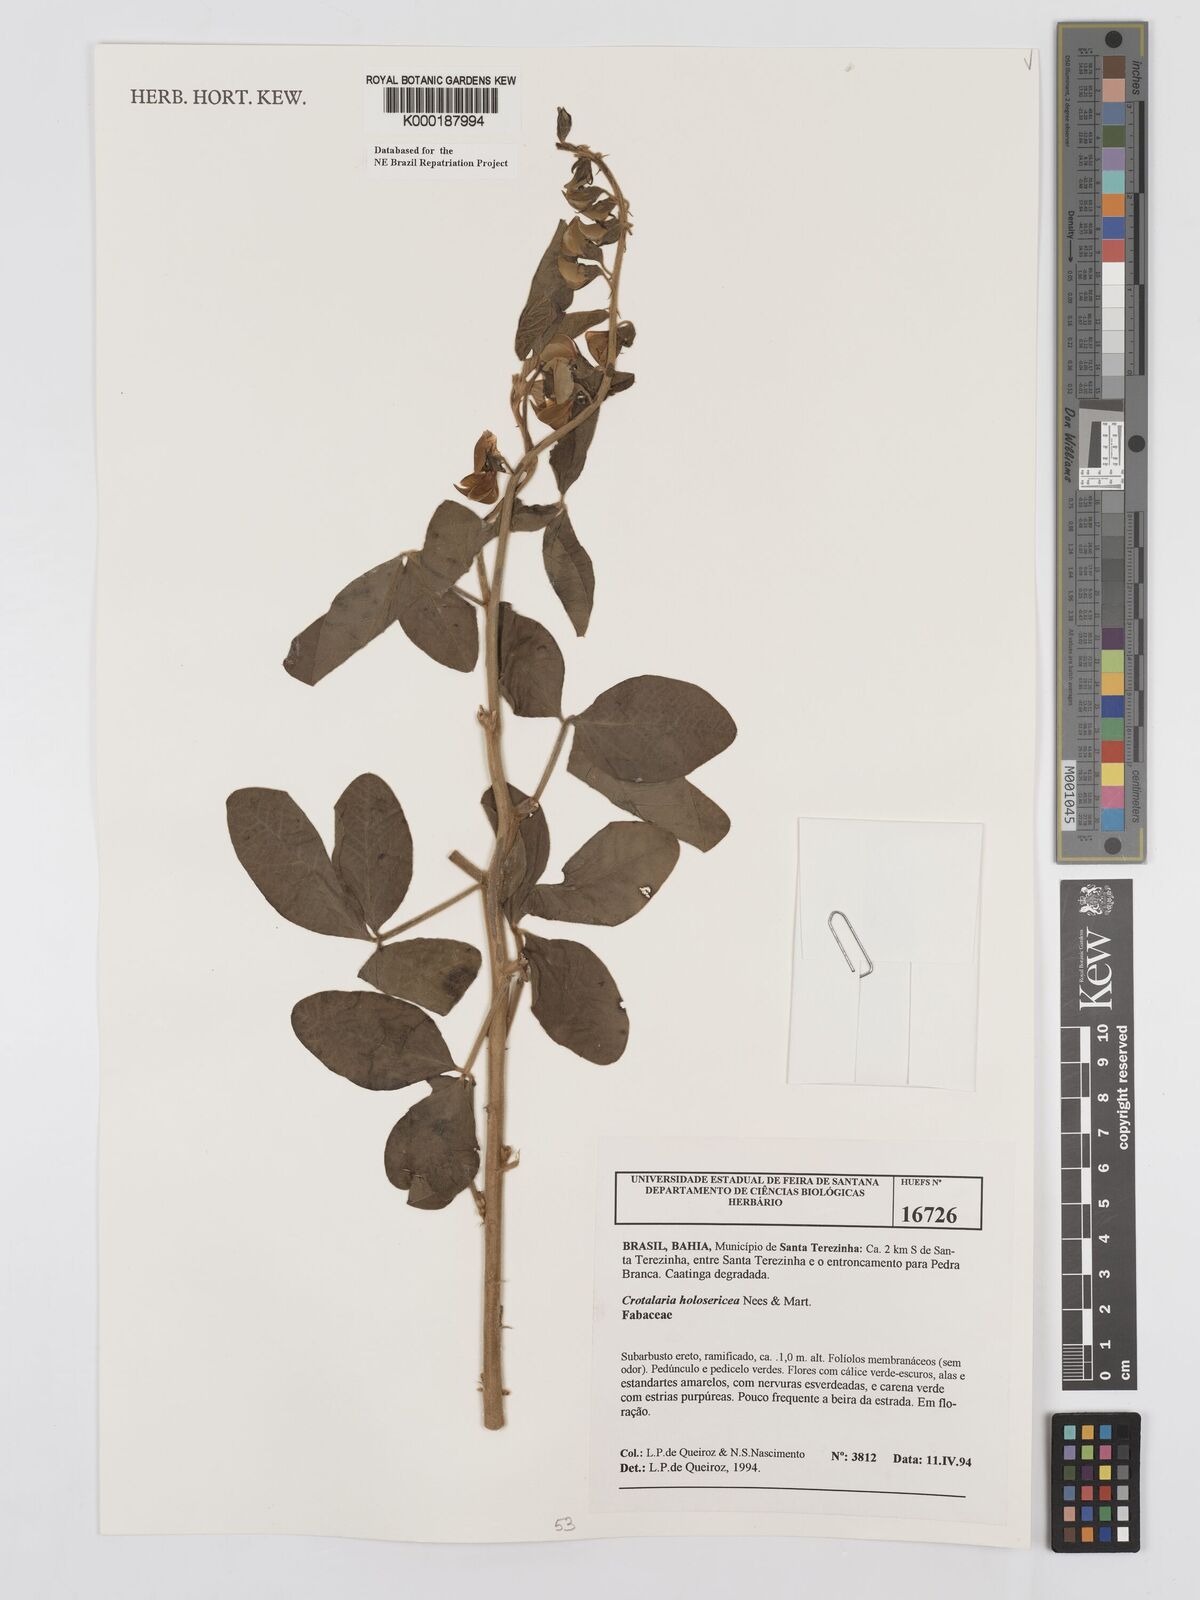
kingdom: Plantae
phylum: Tracheophyta
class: Magnoliopsida
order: Fabales
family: Fabaceae
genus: Crotalaria
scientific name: Crotalaria holosericea
